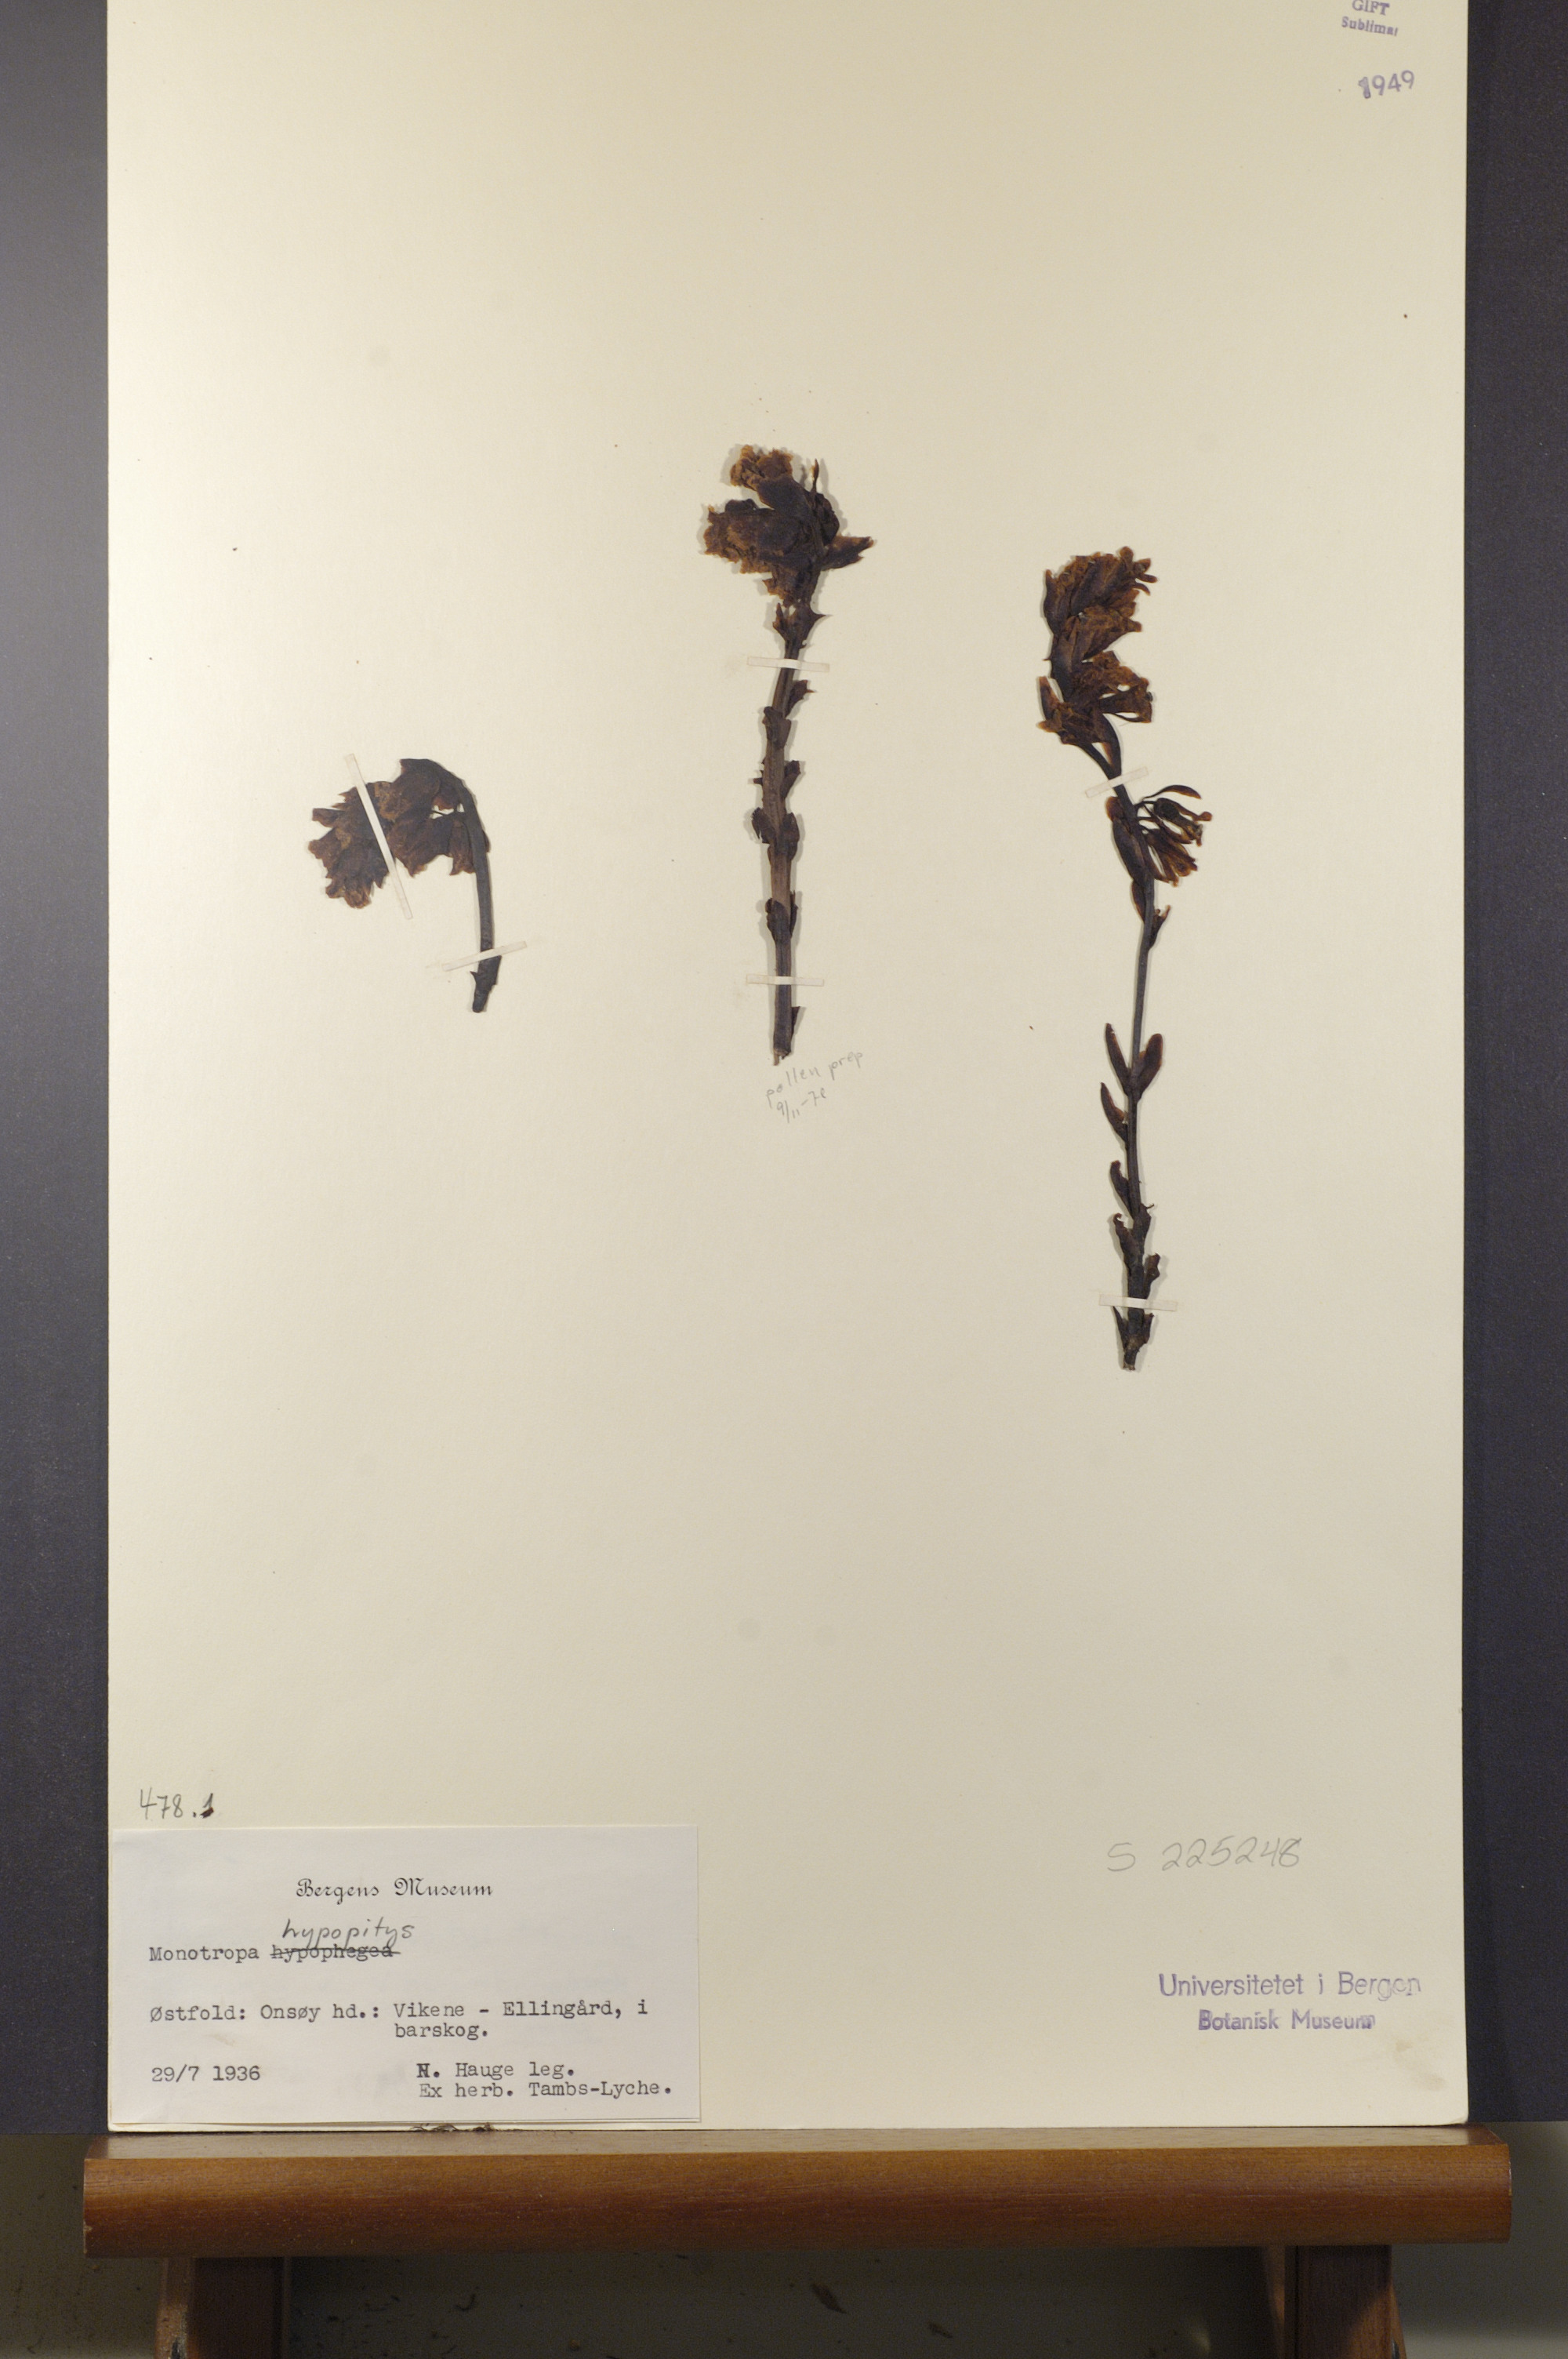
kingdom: Plantae
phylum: Tracheophyta
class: Magnoliopsida
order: Ericales
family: Ericaceae
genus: Hypopitys
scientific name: Hypopitys monotropa
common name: Yellow bird's-nest
